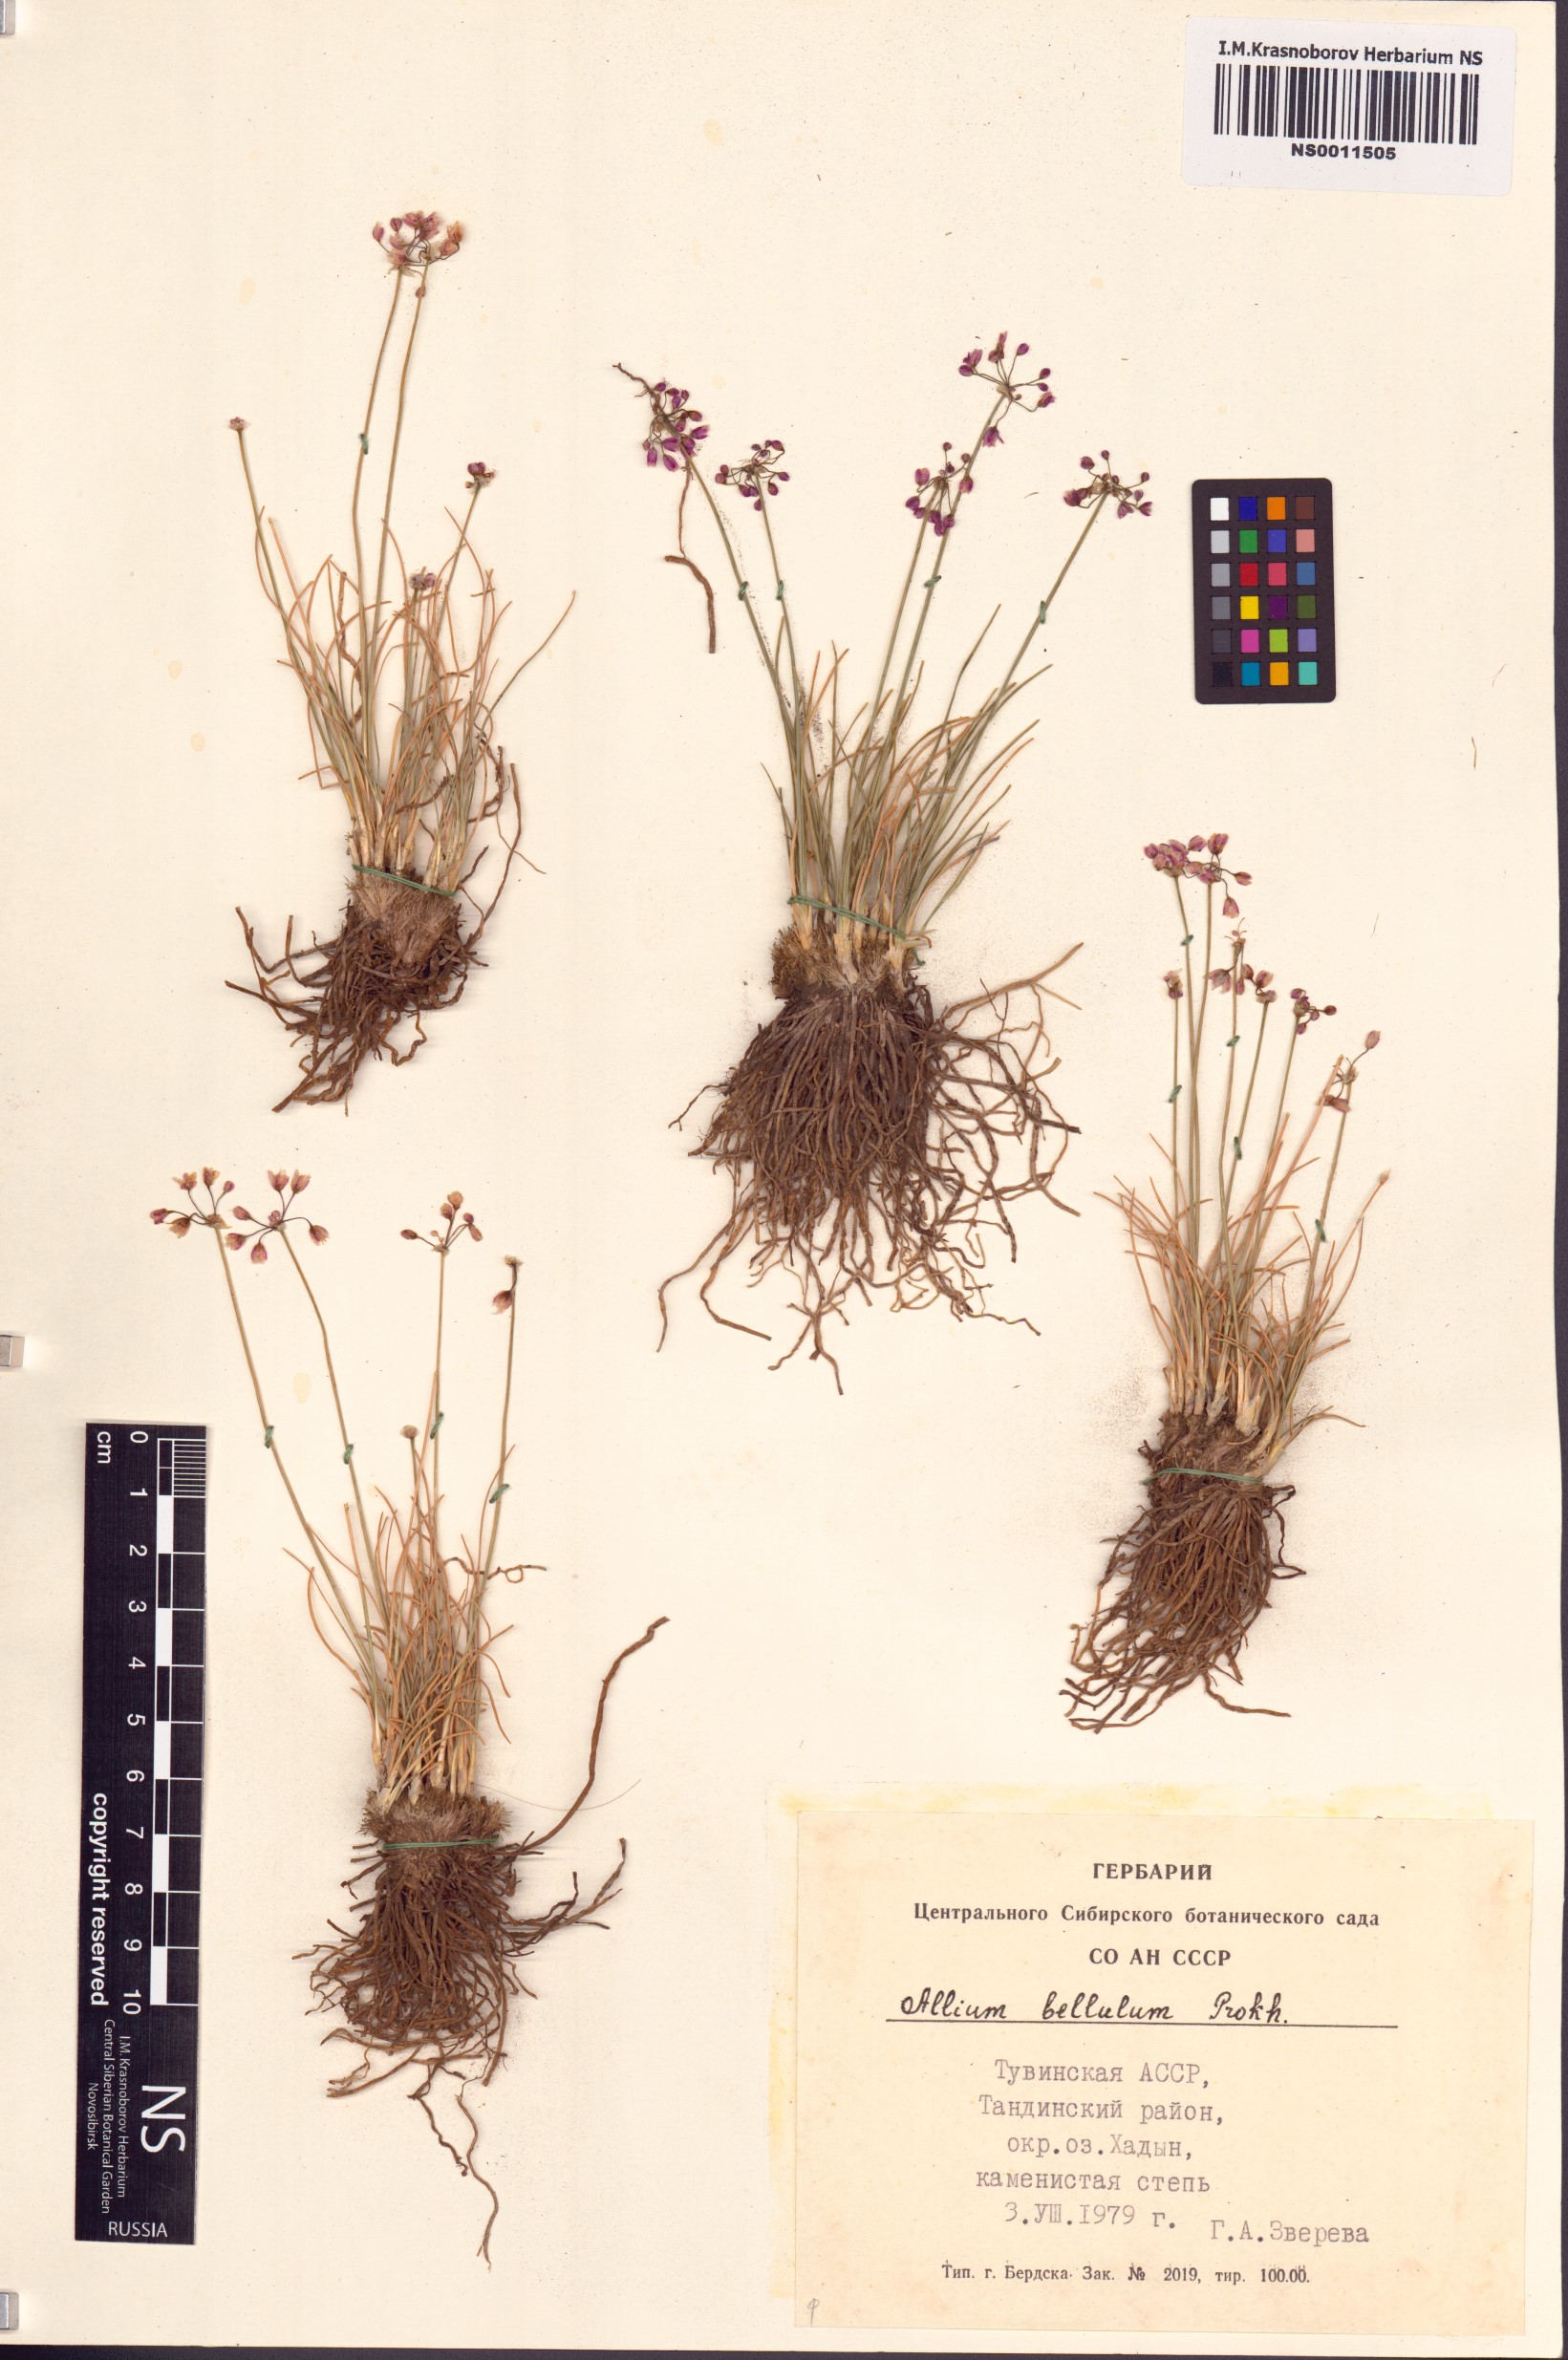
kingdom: Plantae
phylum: Tracheophyta
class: Liliopsida
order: Asparagales
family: Amaryllidaceae
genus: Allium
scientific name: Allium bellulum
